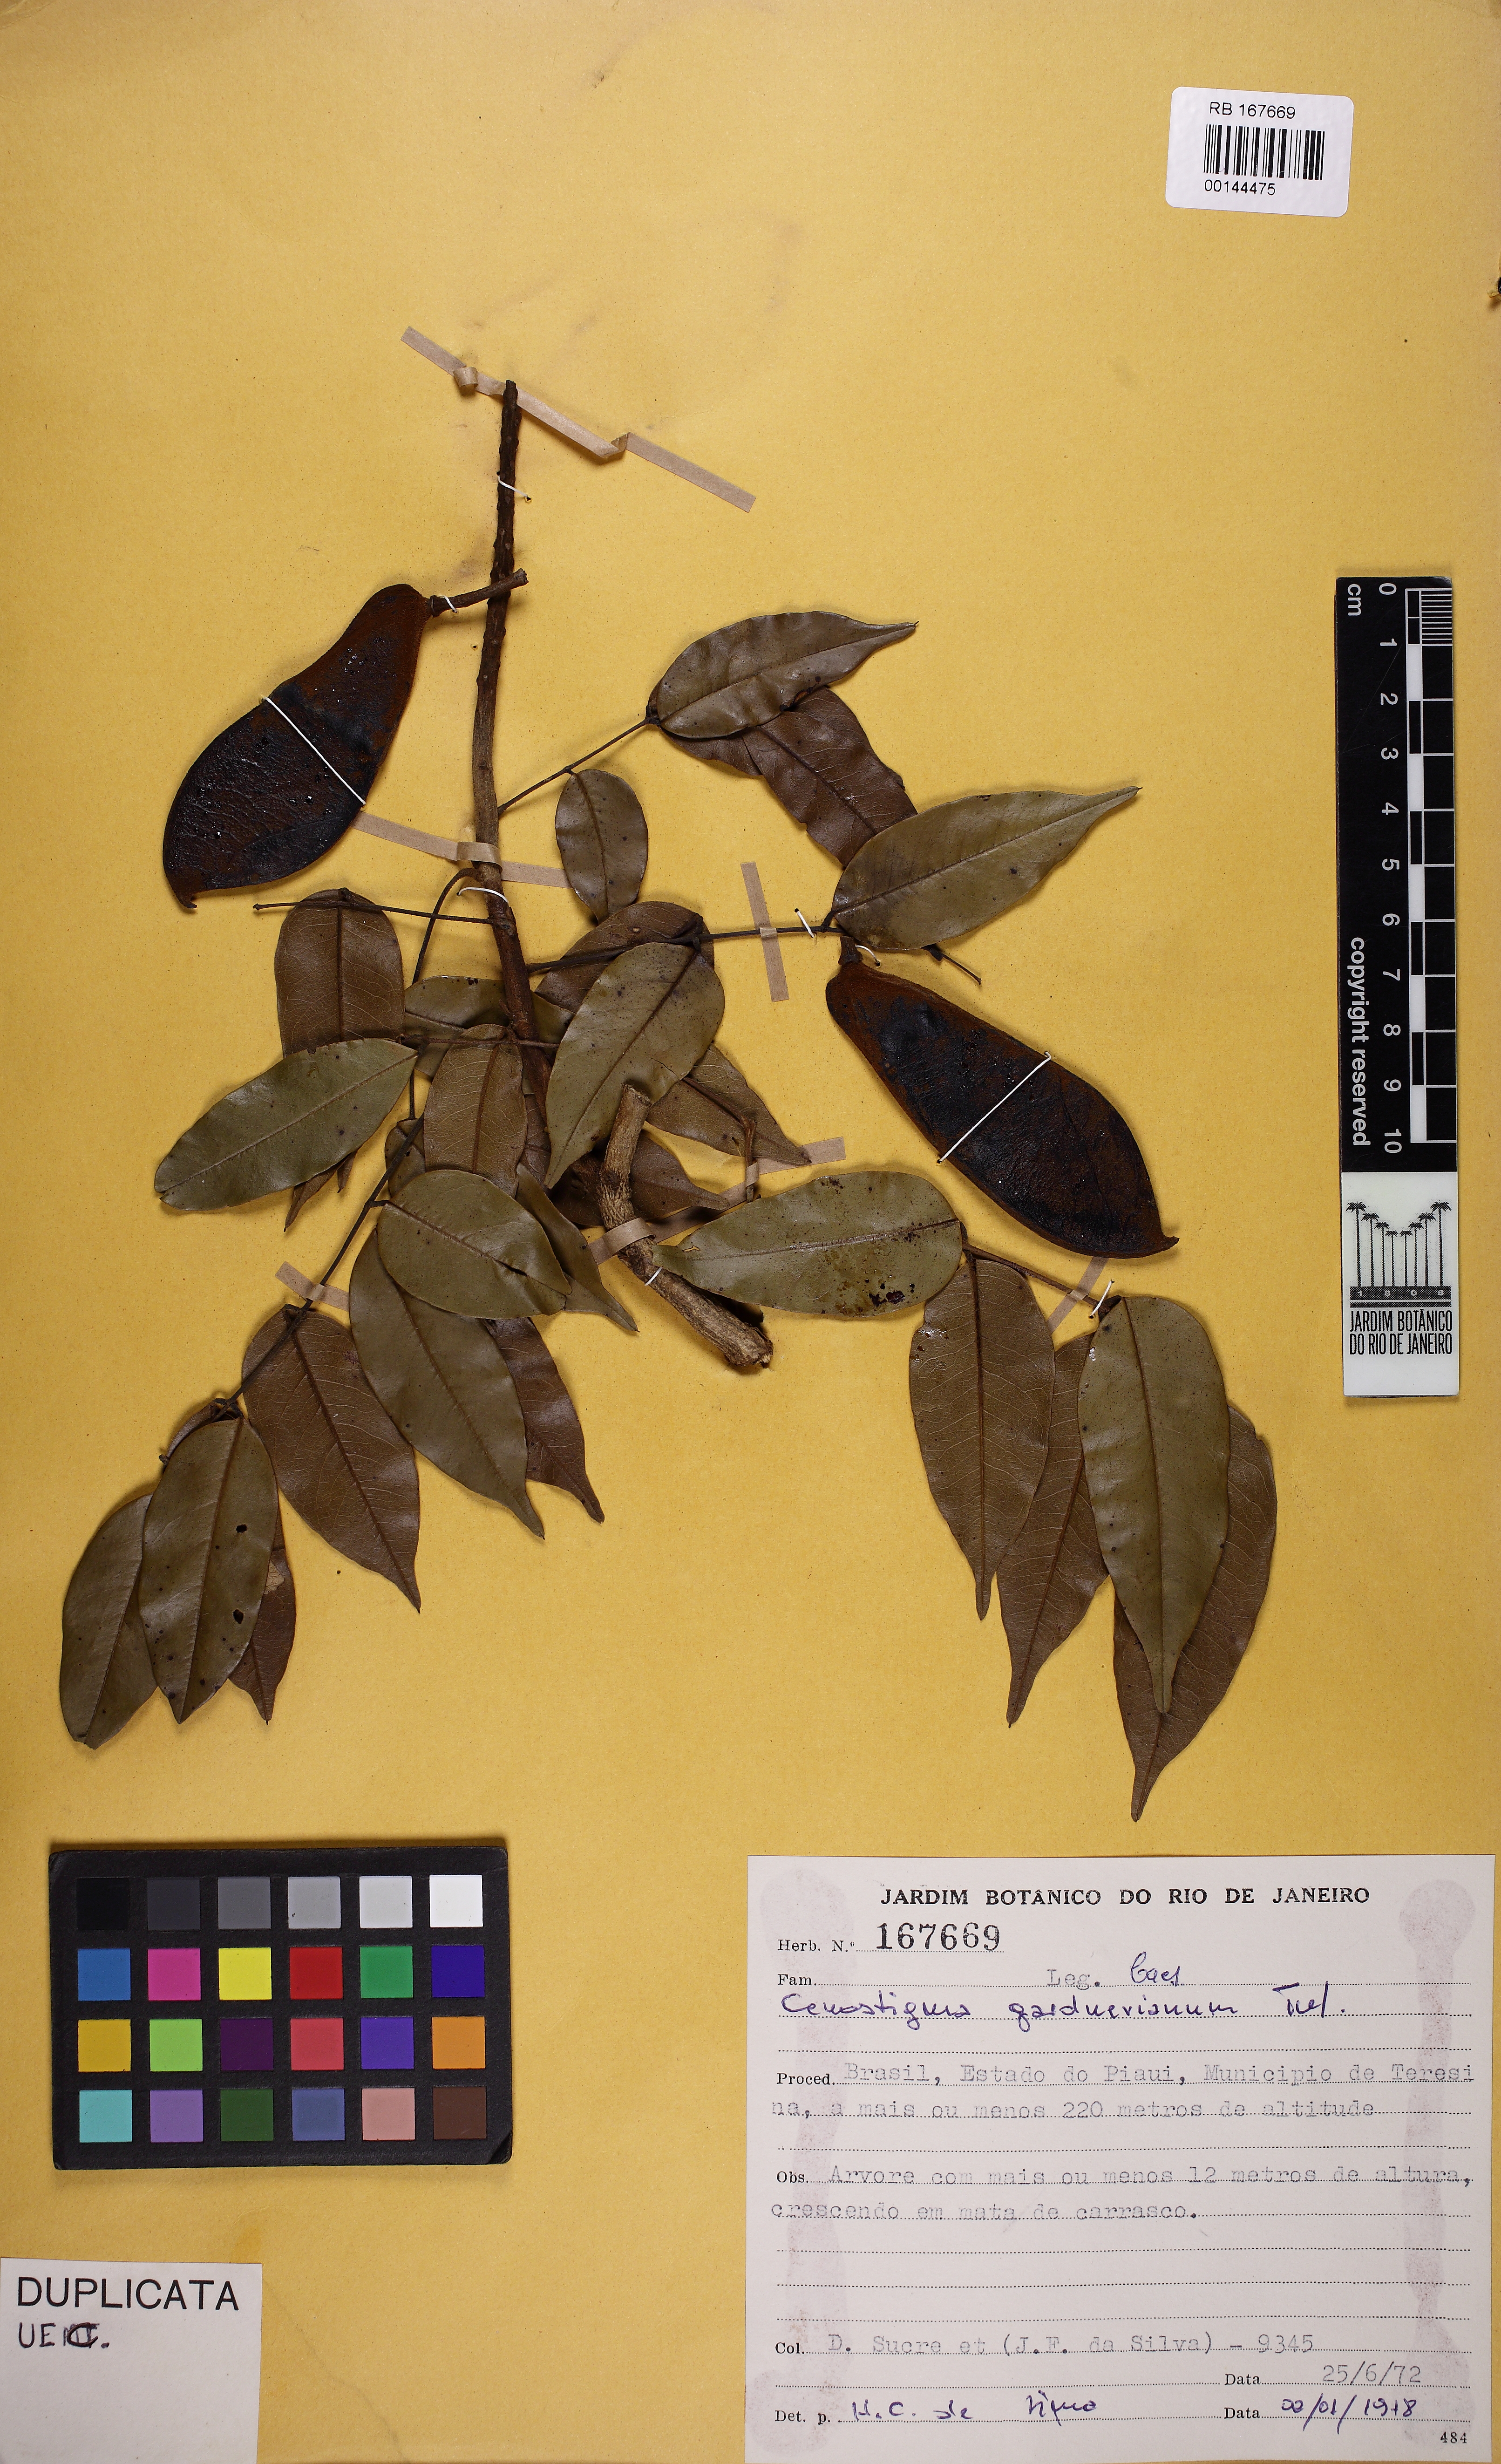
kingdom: Plantae
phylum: Tracheophyta
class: Magnoliopsida
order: Fabales
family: Fabaceae
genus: Cenostigma
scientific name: Cenostigma macrophyllum
